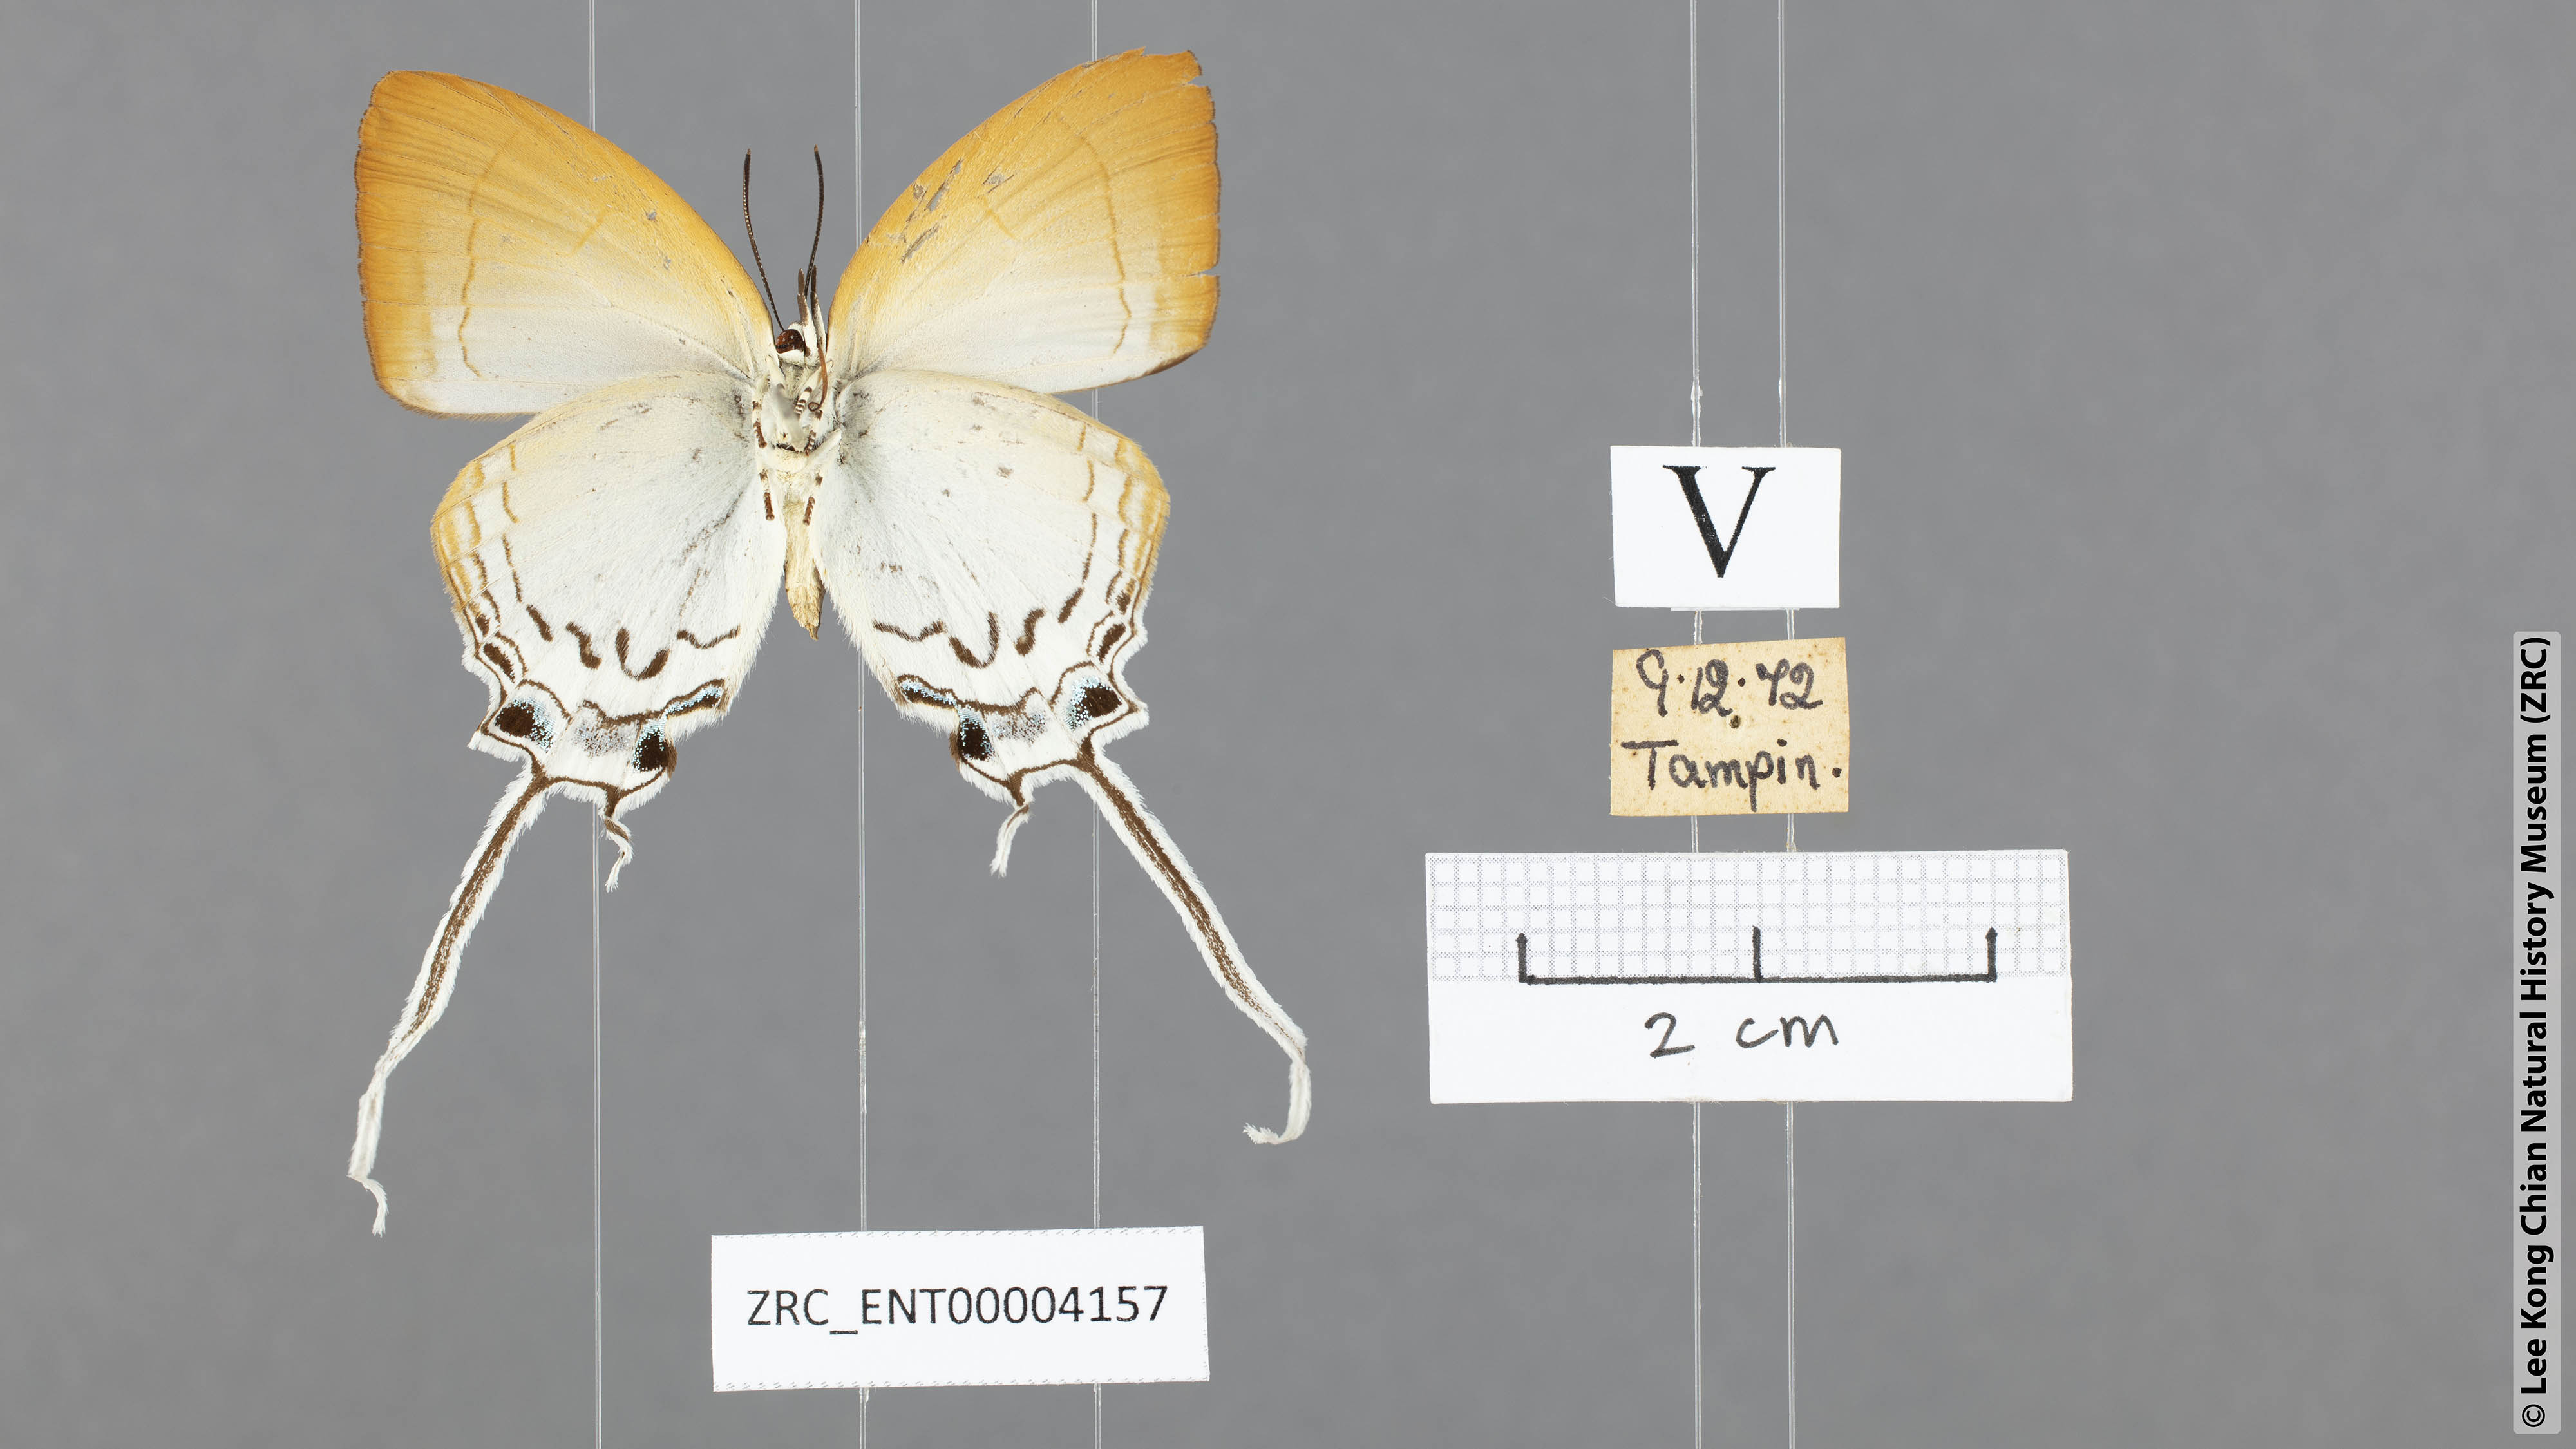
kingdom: Animalia
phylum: Arthropoda
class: Insecta
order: Lepidoptera
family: Lycaenidae
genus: Cheritra
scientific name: Cheritra freja
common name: Common imperial
